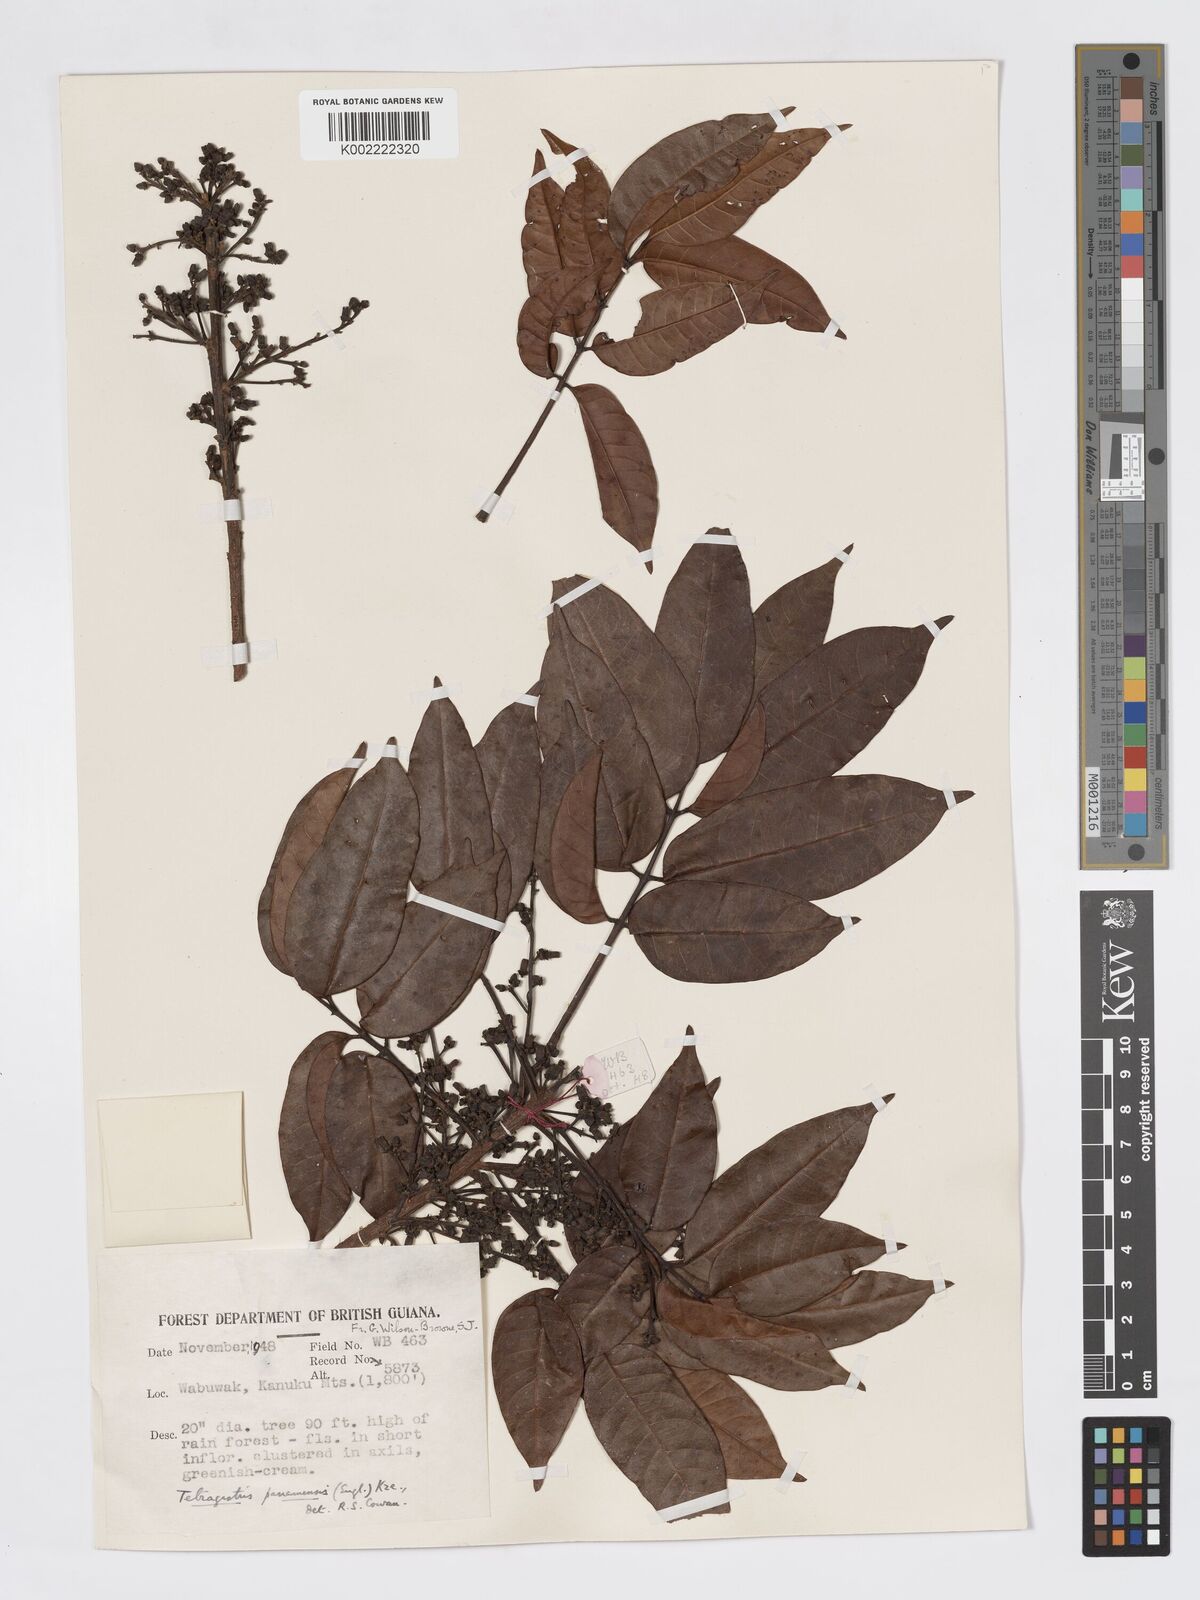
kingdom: Plantae
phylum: Tracheophyta
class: Magnoliopsida
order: Sapindales
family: Burseraceae
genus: Tetragastris
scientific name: Tetragastris panamensis
